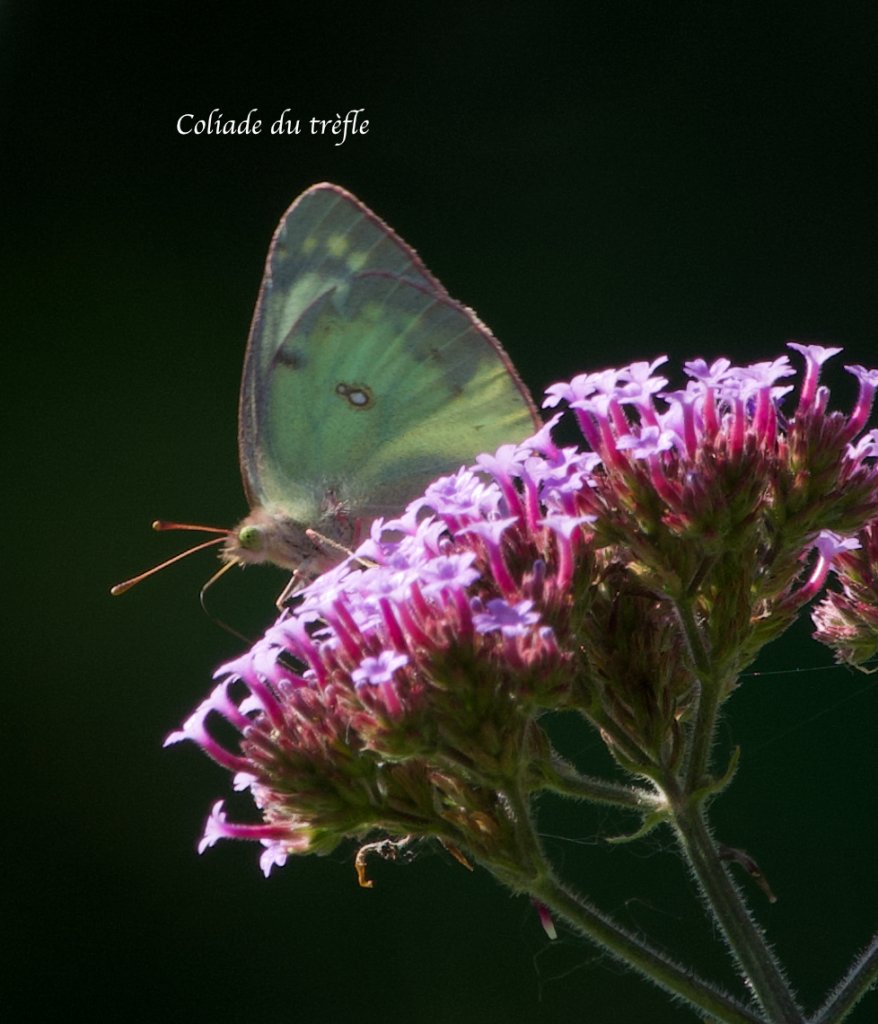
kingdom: Animalia
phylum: Arthropoda
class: Insecta
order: Lepidoptera
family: Pieridae
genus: Colias
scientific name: Colias philodice
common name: Clouded Sulphur
